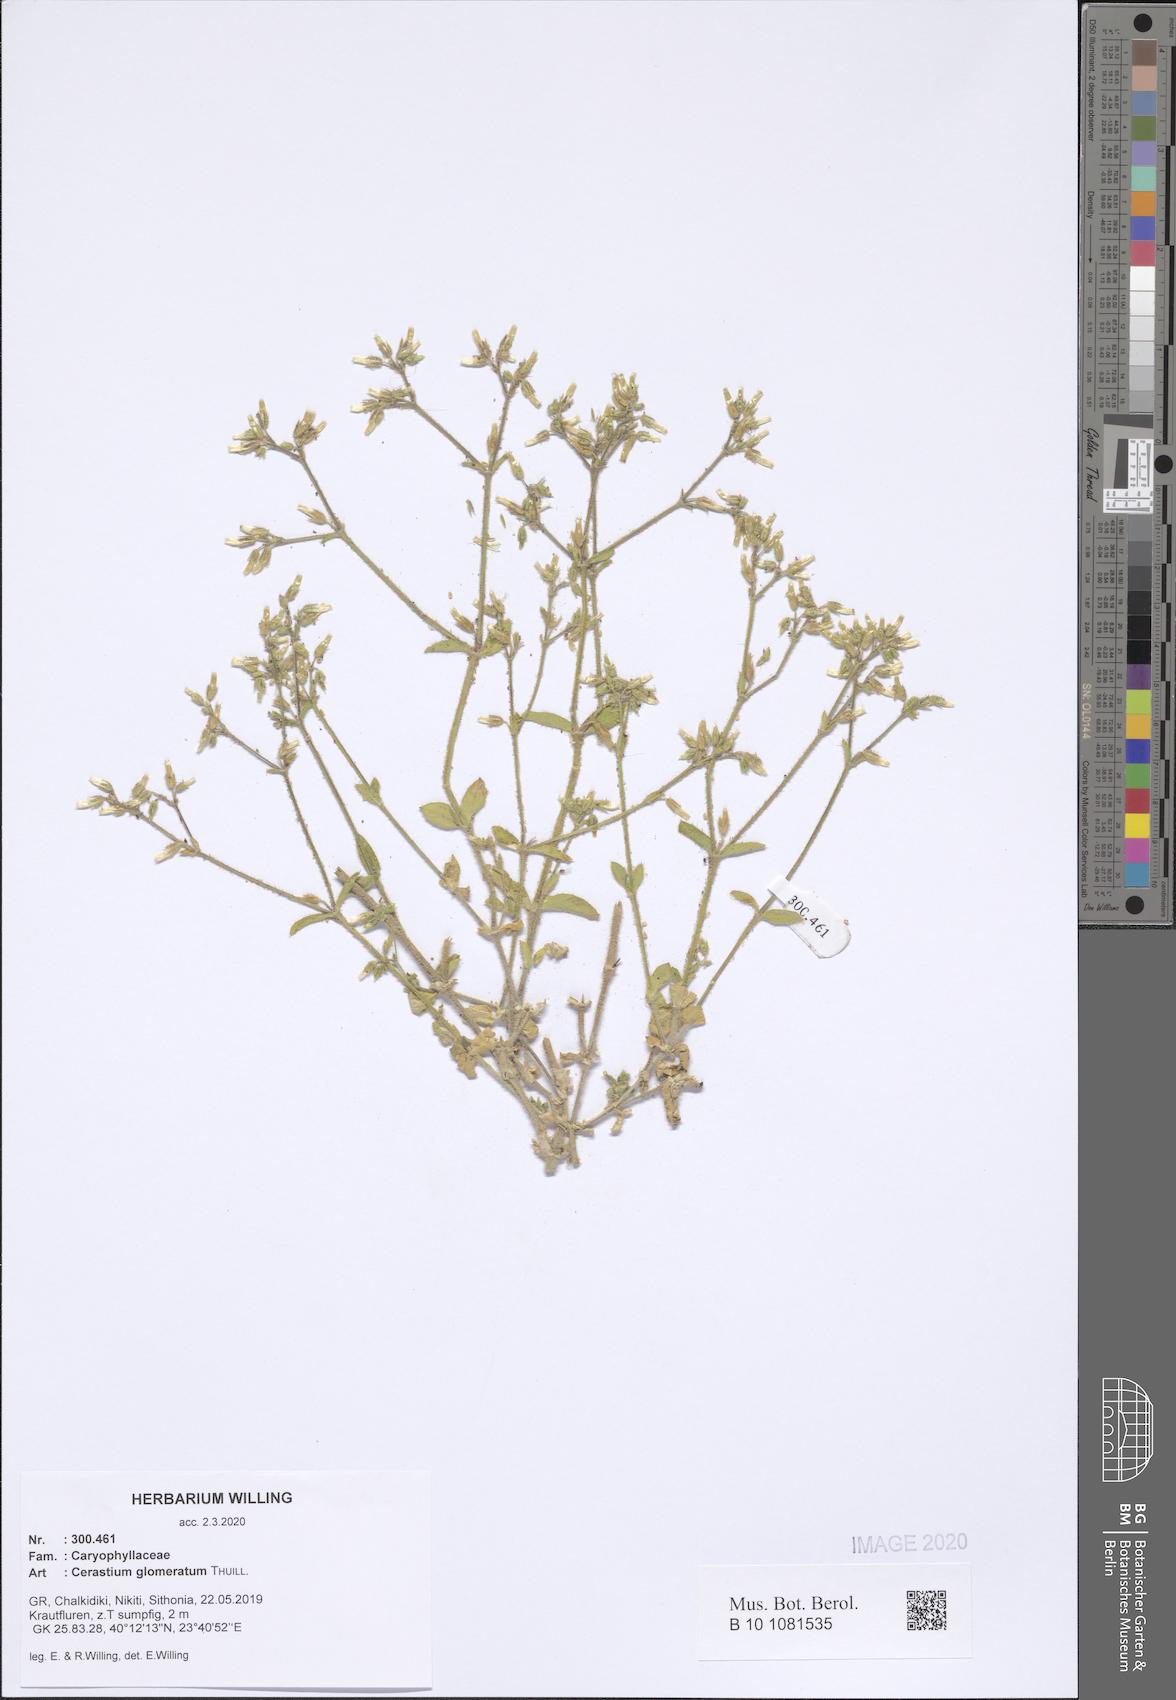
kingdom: Plantae
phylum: Tracheophyta
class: Magnoliopsida
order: Caryophyllales
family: Caryophyllaceae
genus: Cerastium
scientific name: Cerastium glomeratum
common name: Sticky chickweed
